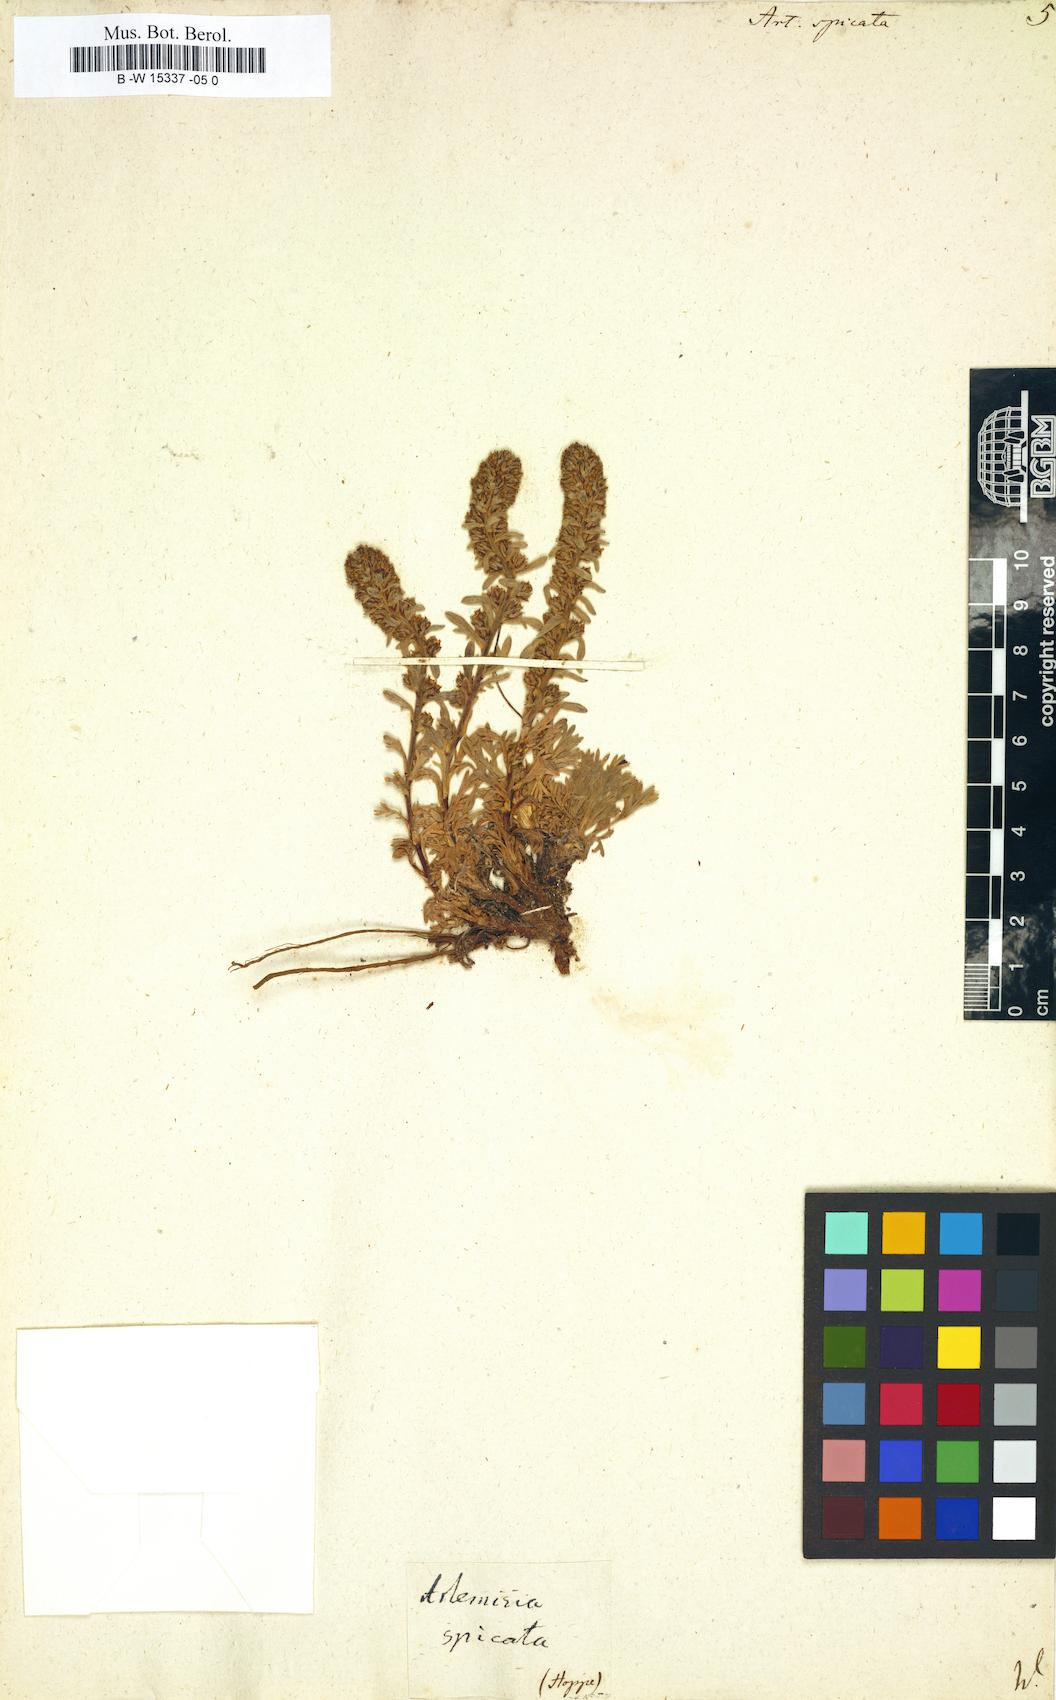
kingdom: Plantae
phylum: Tracheophyta
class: Magnoliopsida
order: Asterales
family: Asteraceae
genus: Artemisia
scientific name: Artemisia genipi
